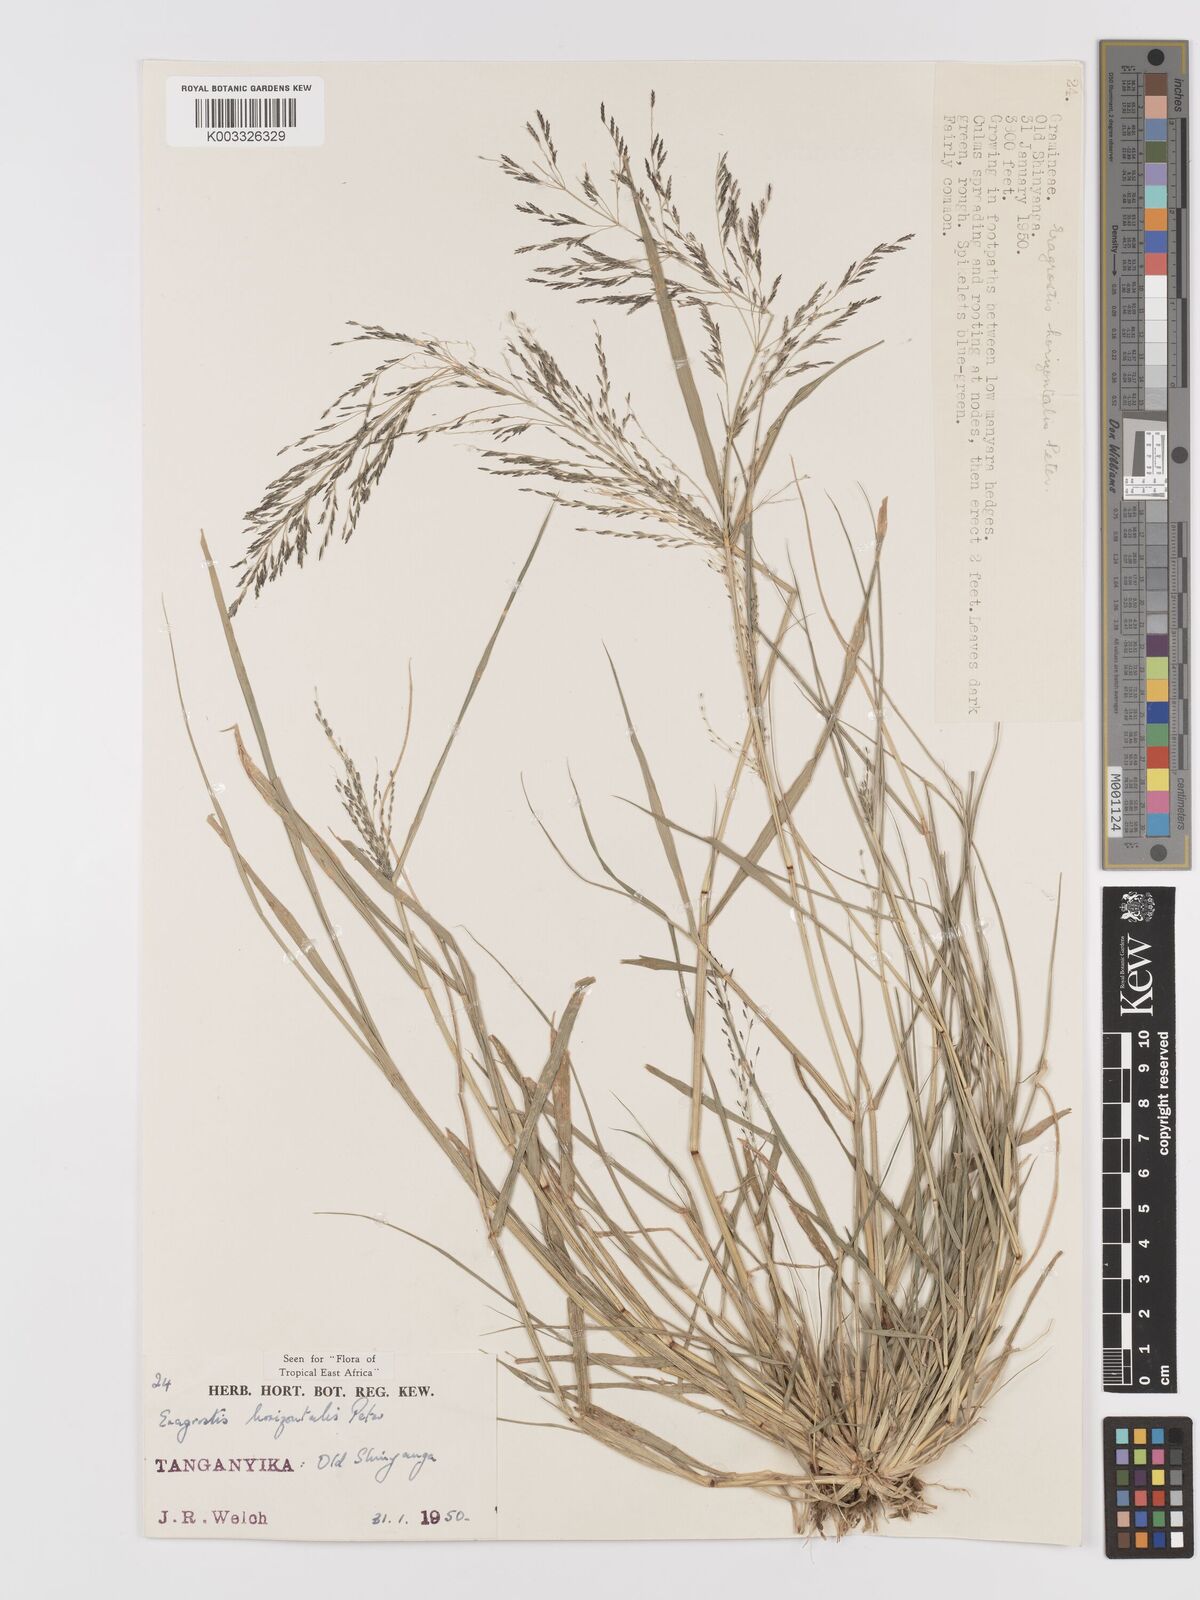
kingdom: Plantae
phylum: Tracheophyta
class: Liliopsida
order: Poales
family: Poaceae
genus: Eragrostis
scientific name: Eragrostis cylindriflora
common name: Cylinderflower lovegrass
